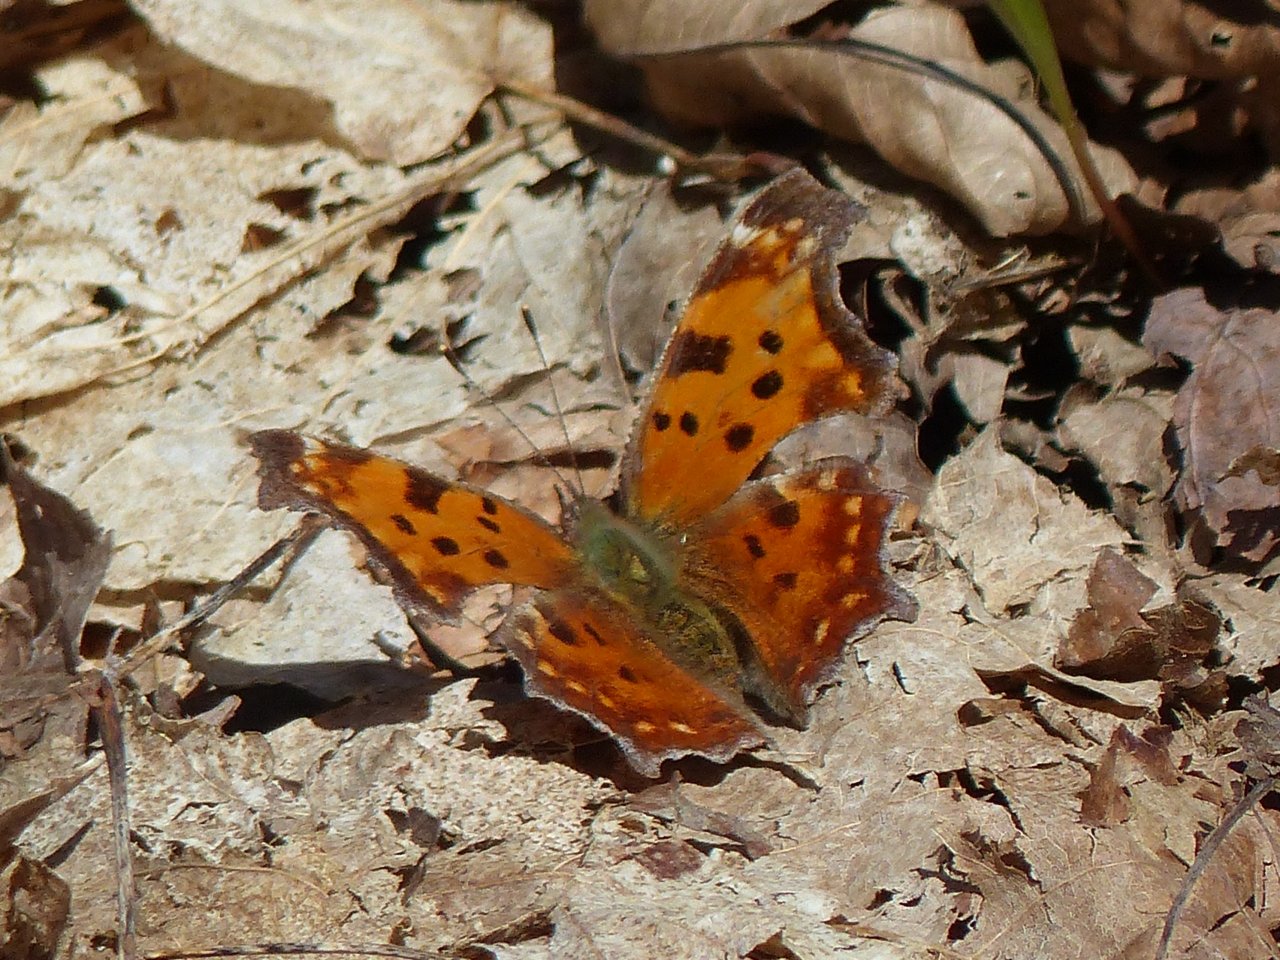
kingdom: Animalia
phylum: Arthropoda
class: Insecta
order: Lepidoptera
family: Nymphalidae
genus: Polygonia
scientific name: Polygonia comma
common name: Eastern Comma
